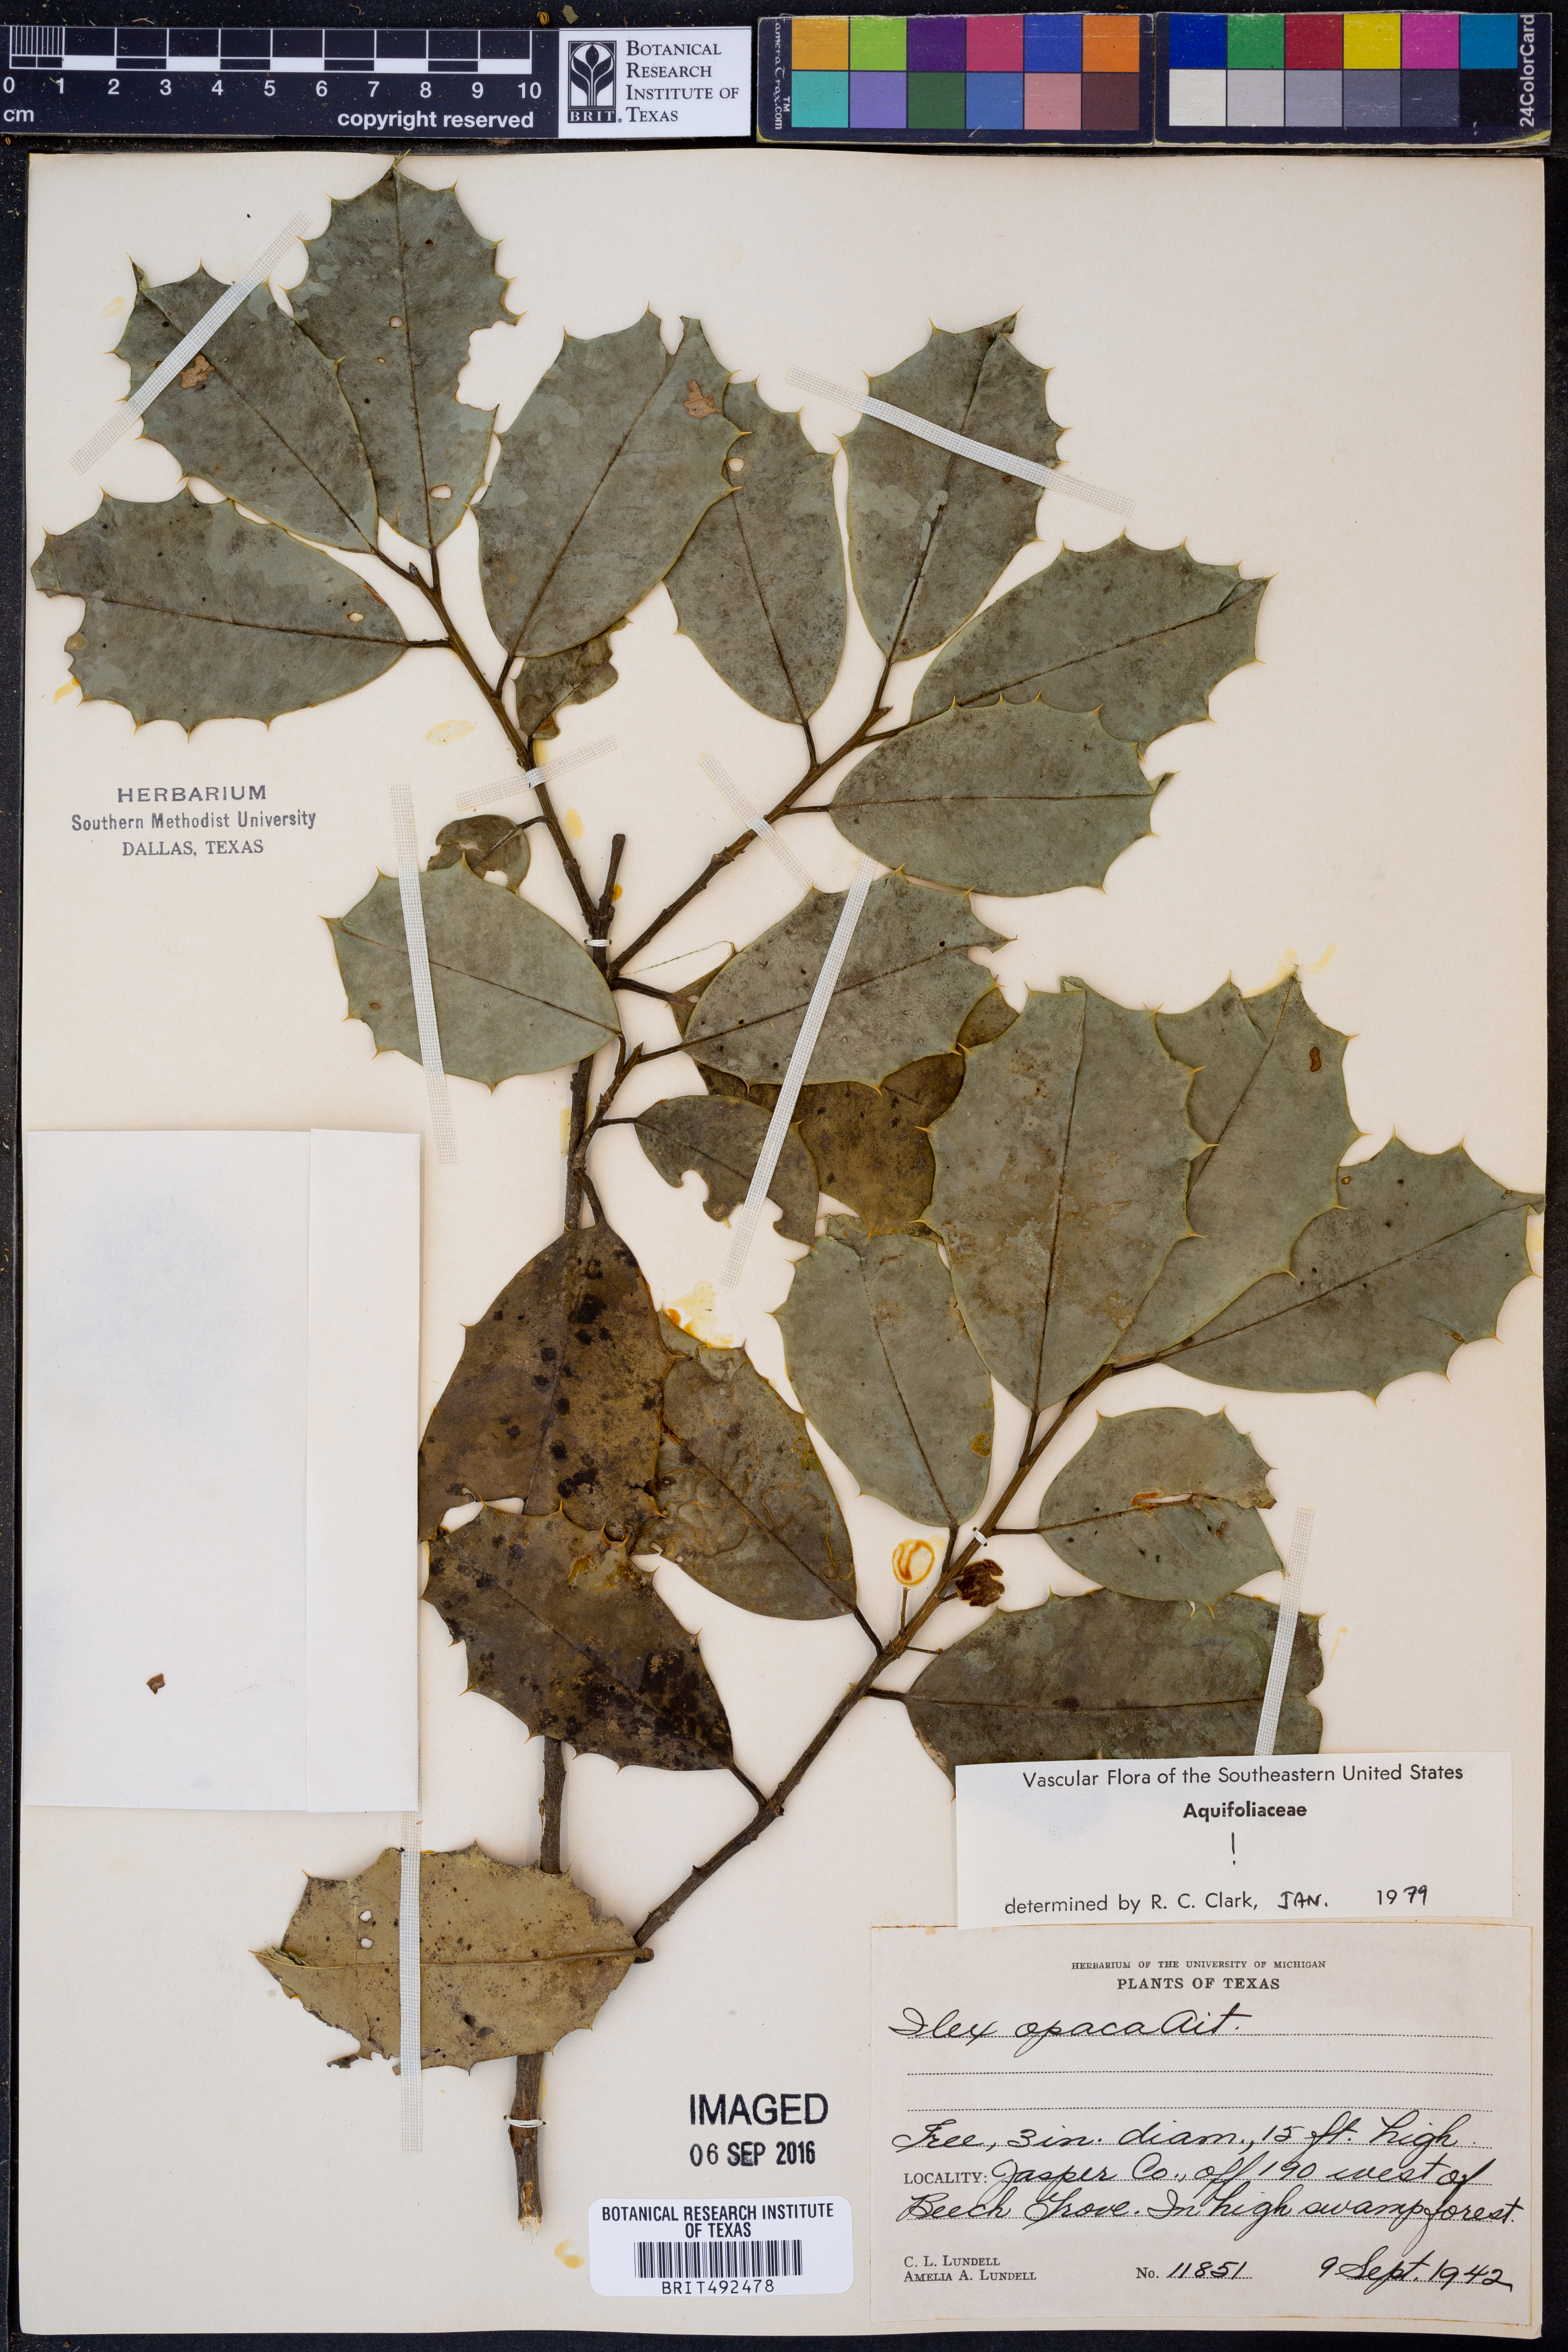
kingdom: Plantae
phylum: Tracheophyta
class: Magnoliopsida
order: Aquifoliales
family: Aquifoliaceae
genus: Ilex
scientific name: Ilex opaca
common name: American holly
